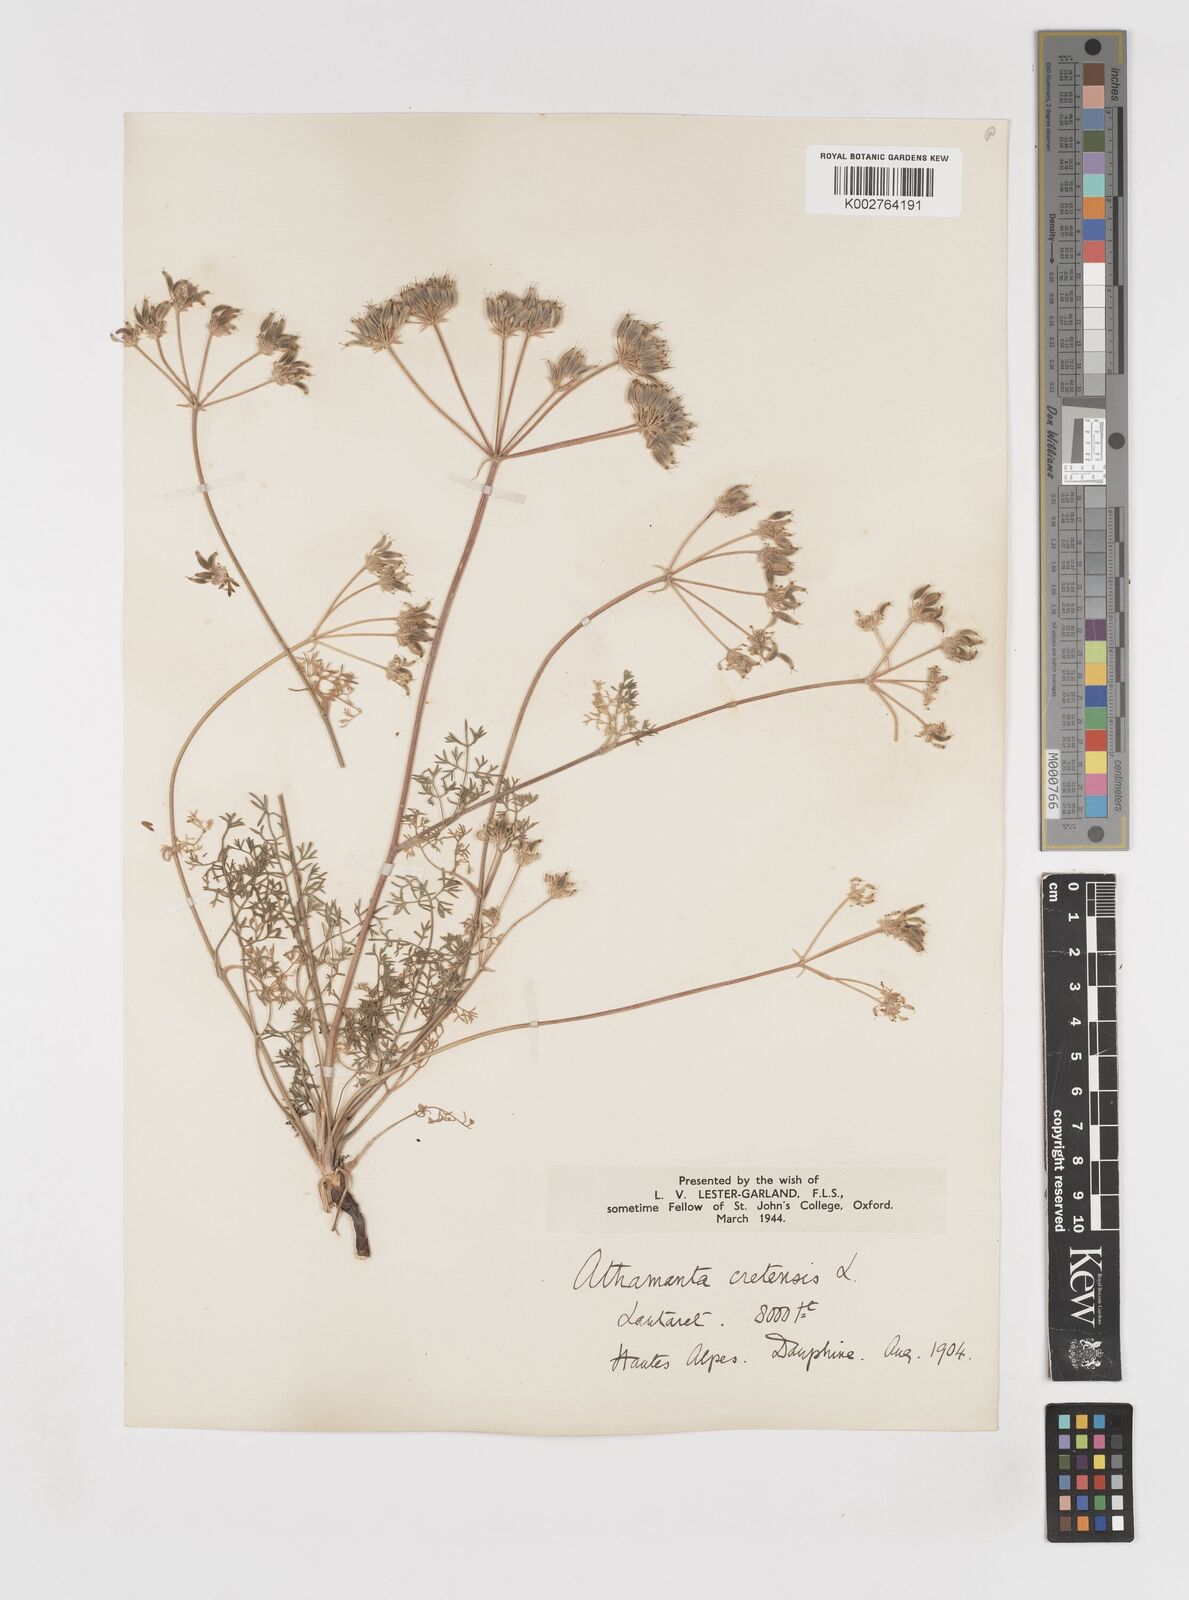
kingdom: Plantae
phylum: Tracheophyta
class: Magnoliopsida
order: Apiales
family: Apiaceae
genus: Athamanta
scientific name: Athamanta cretensis
